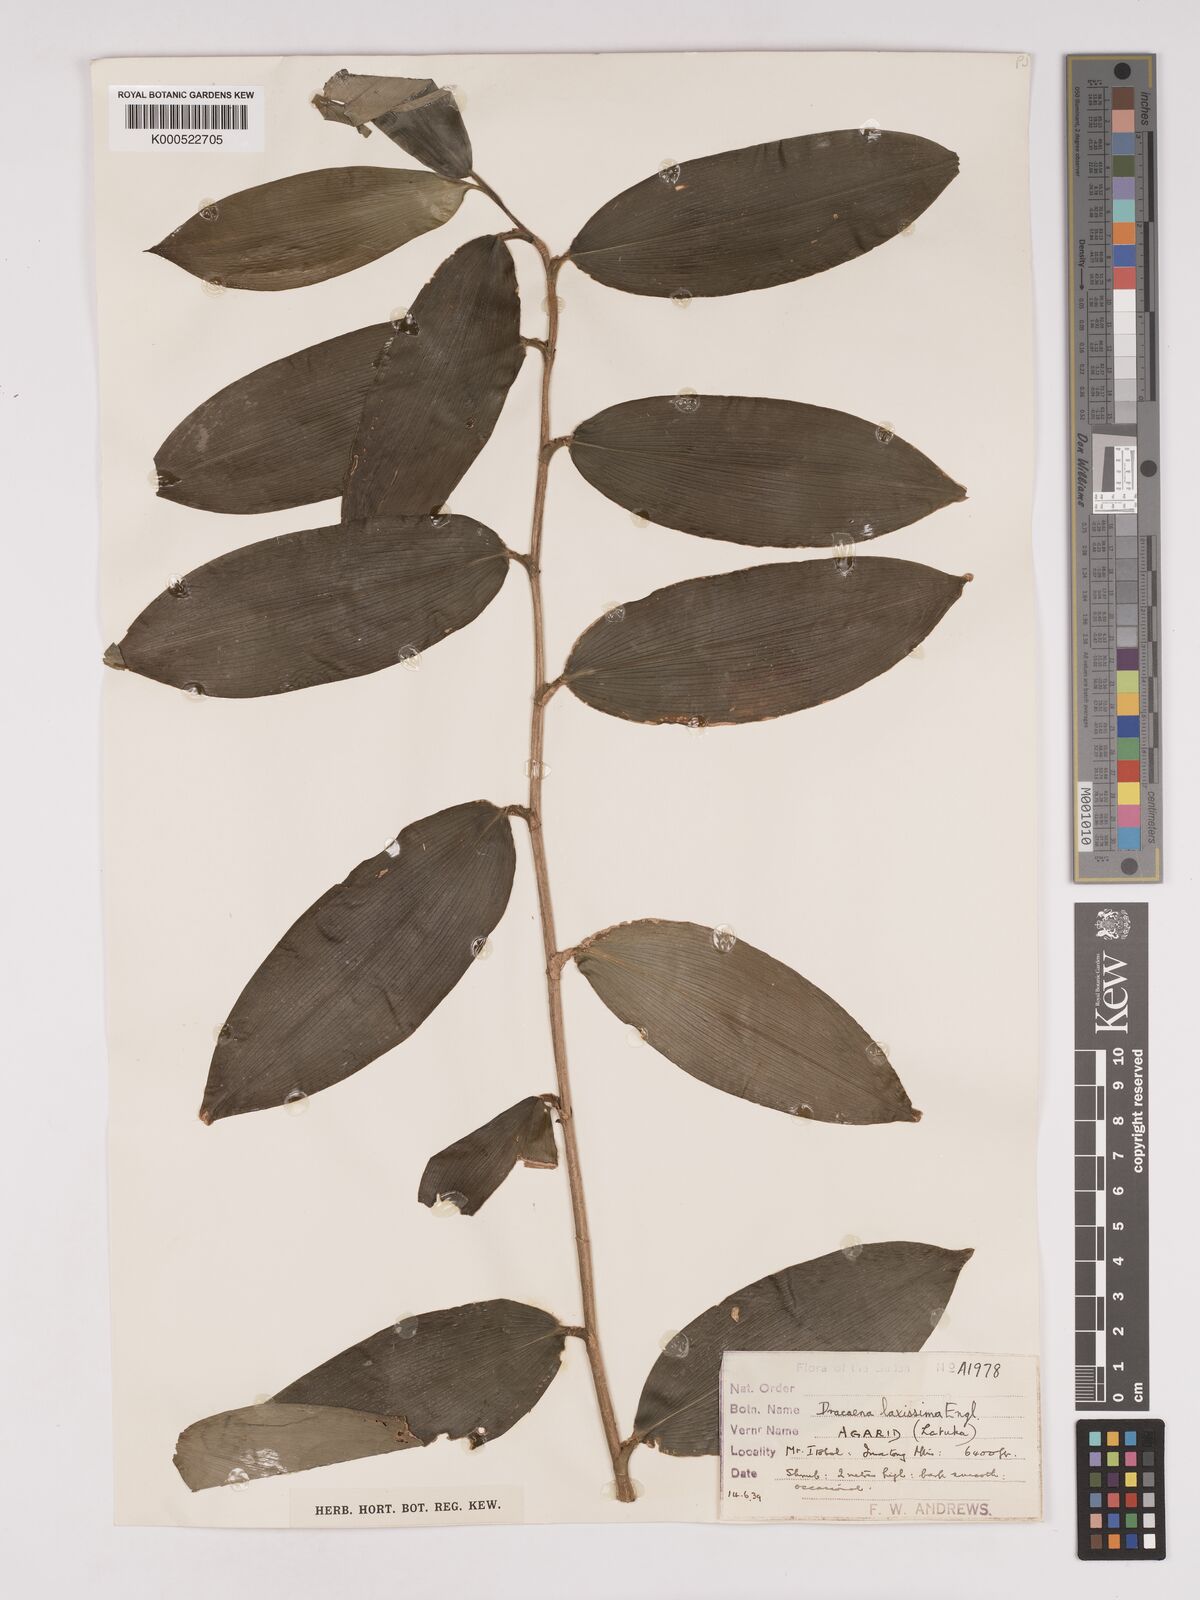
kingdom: Plantae
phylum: Tracheophyta
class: Liliopsida
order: Asparagales
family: Asparagaceae
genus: Dracaena
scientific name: Dracaena laxissima
